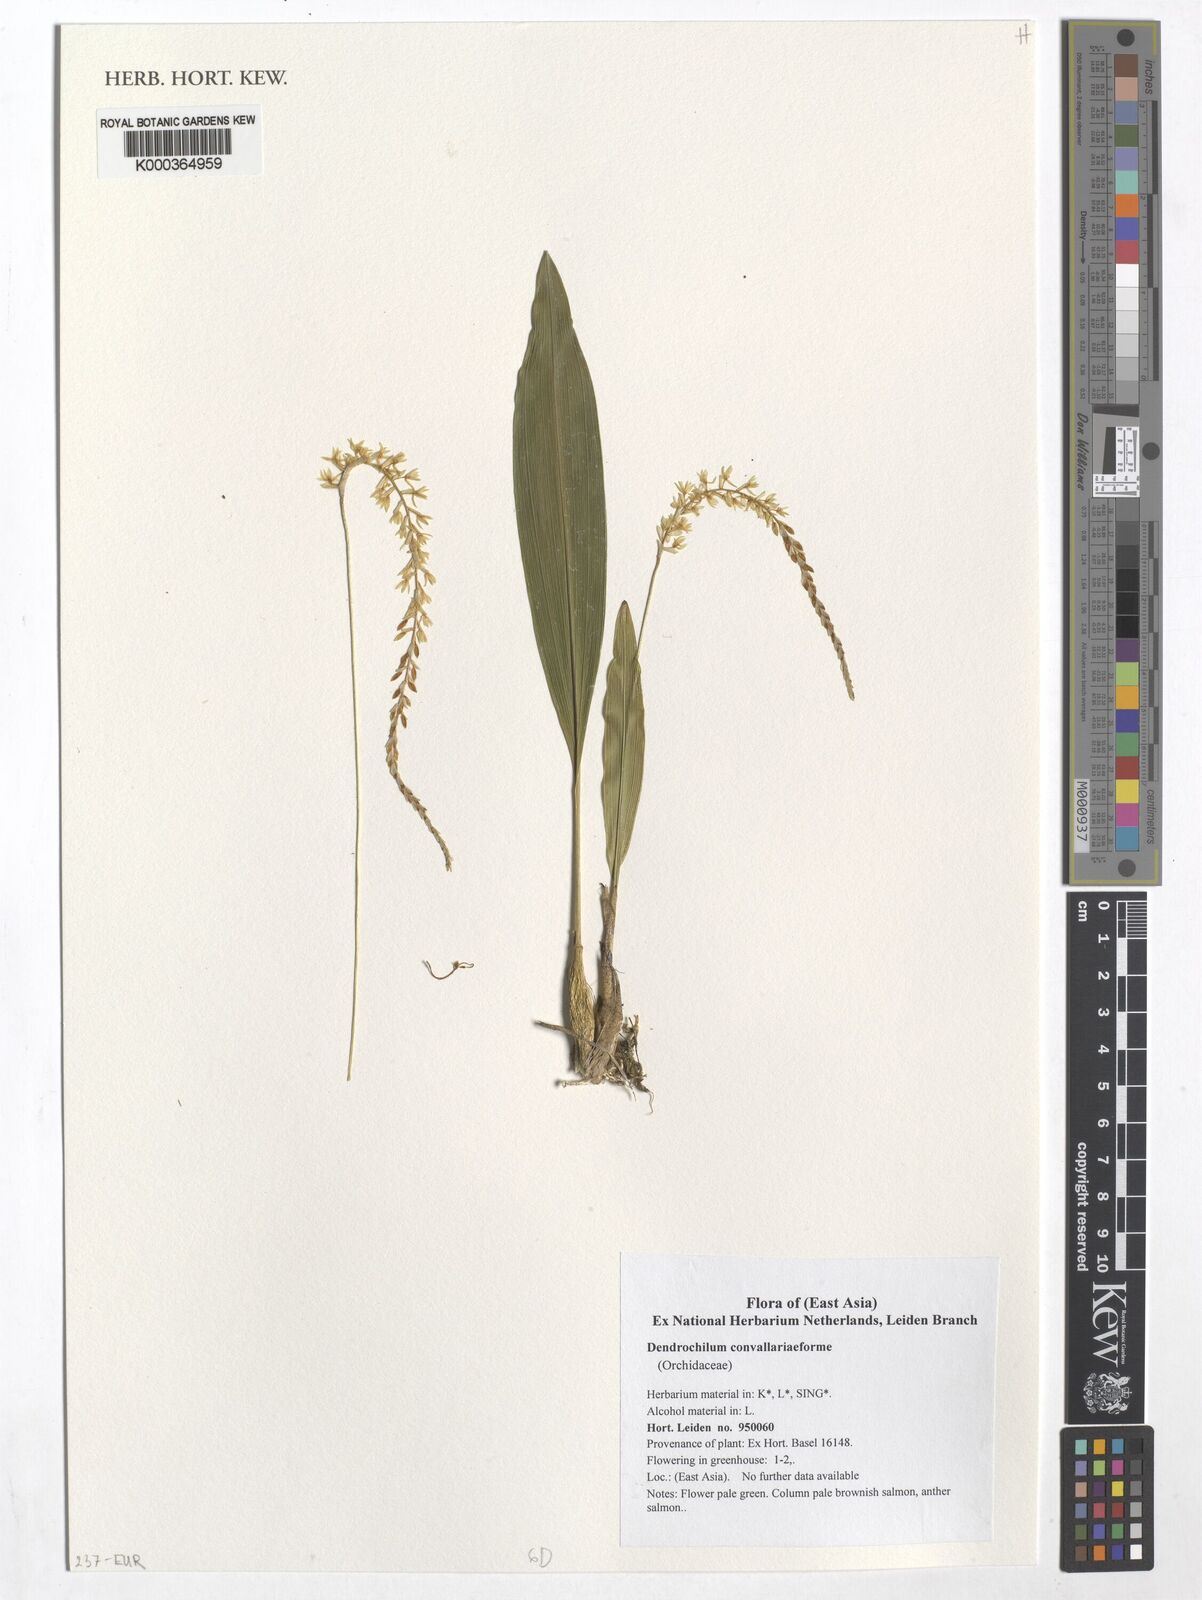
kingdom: Plantae
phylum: Tracheophyta
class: Liliopsida
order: Asparagales
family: Orchidaceae
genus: Coelogyne
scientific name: Coelogyne convallariiformis
